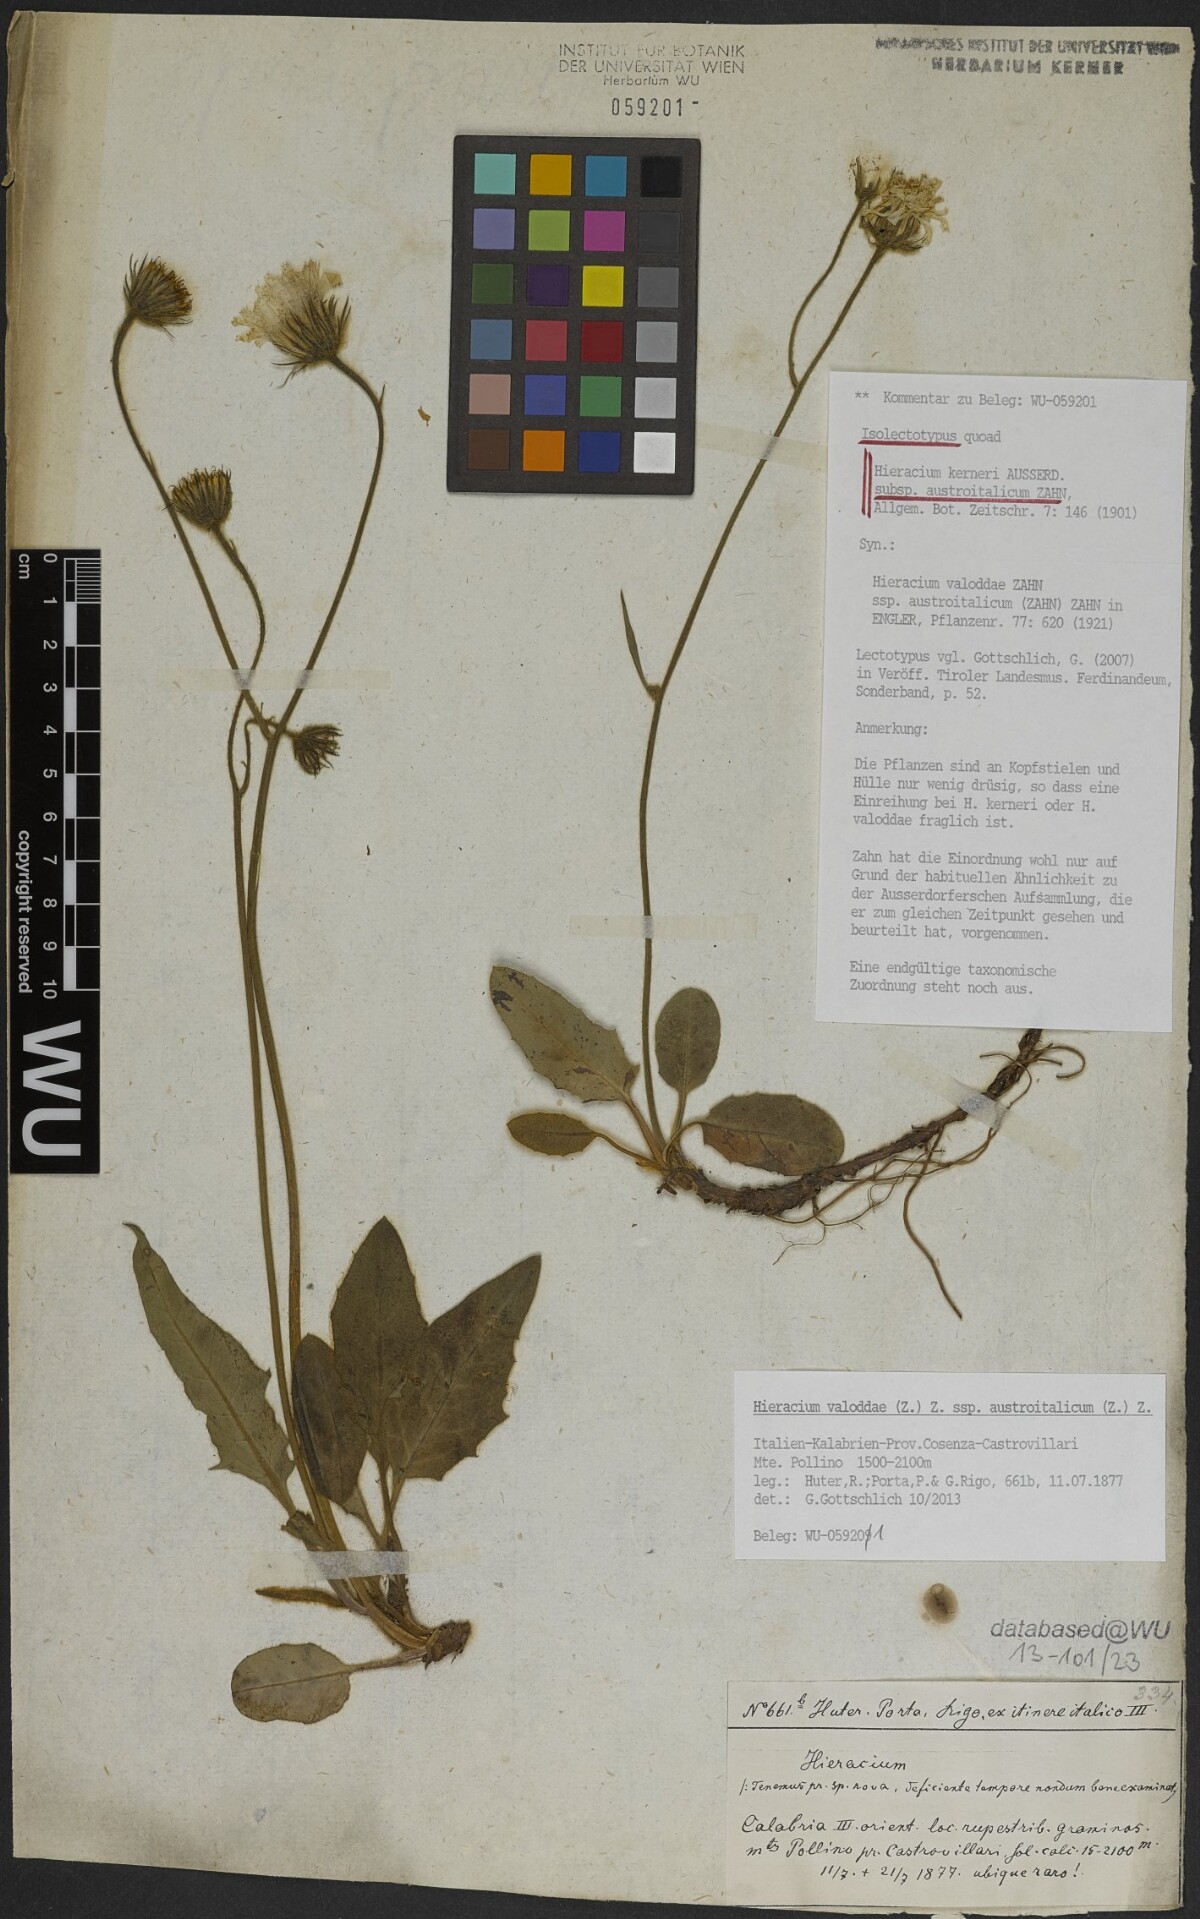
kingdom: Plantae
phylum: Tracheophyta
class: Magnoliopsida
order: Asterales
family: Asteraceae
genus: Hieracium
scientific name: Hieracium valoddae
